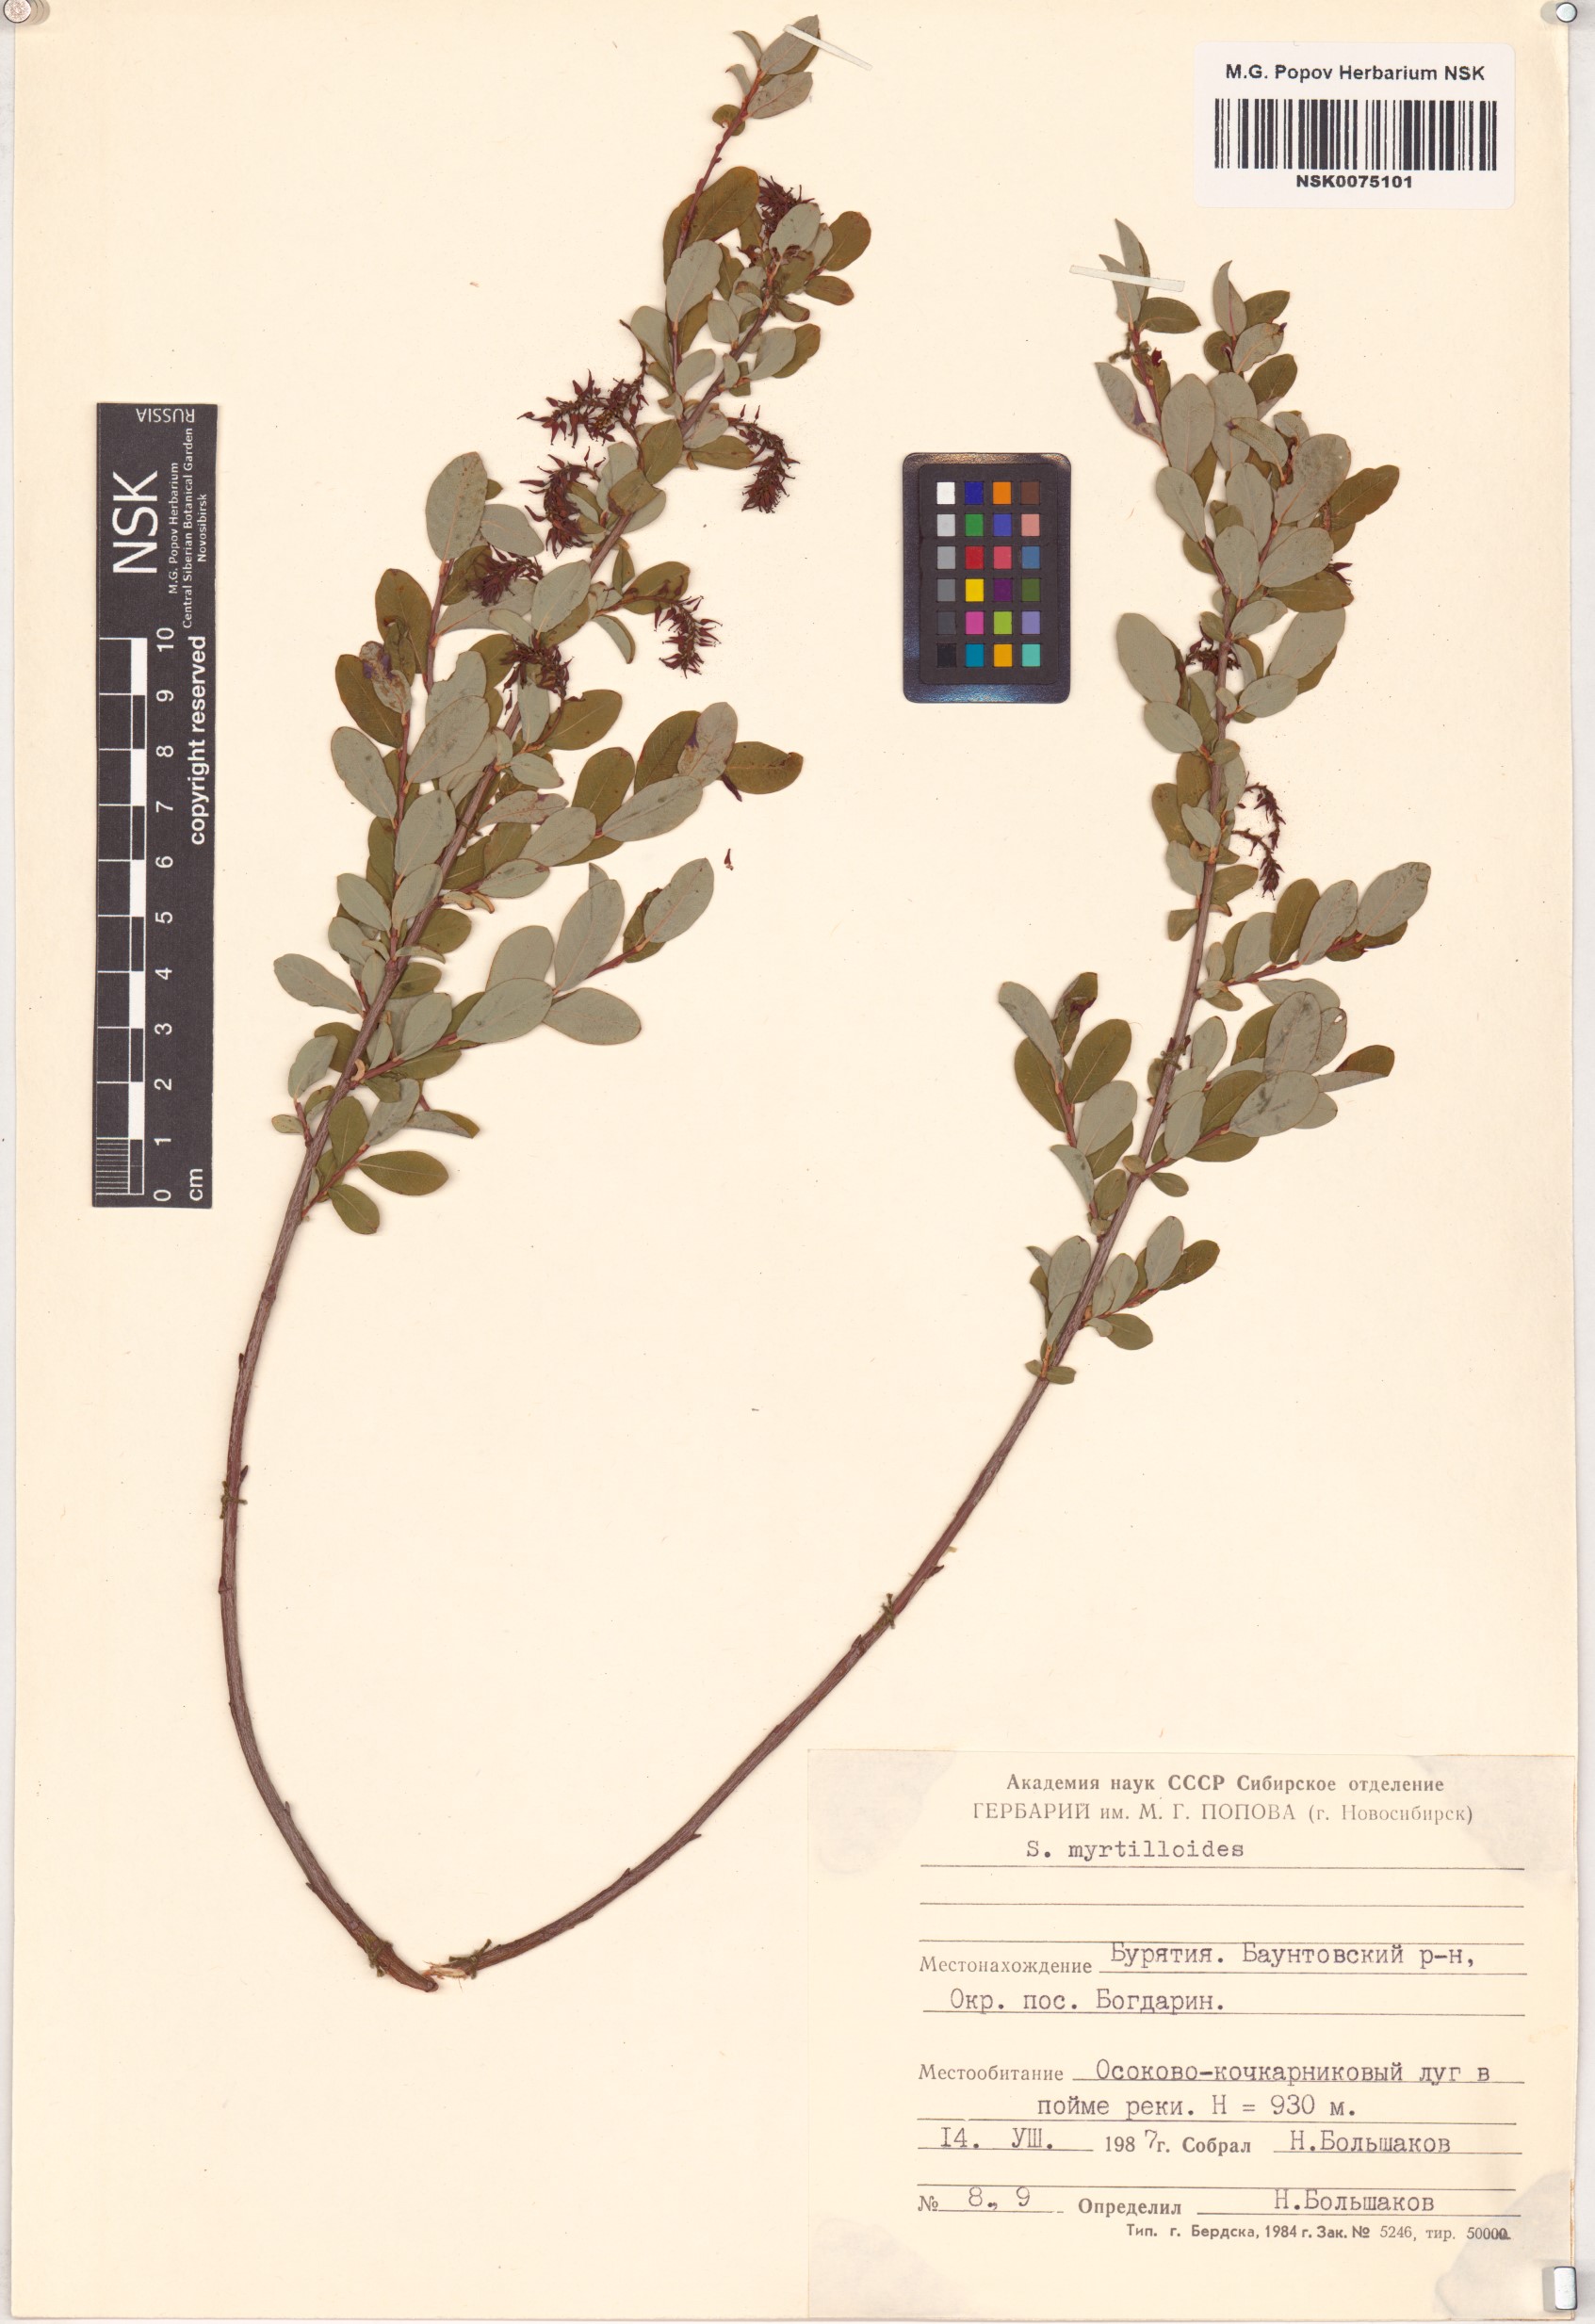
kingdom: Plantae
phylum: Tracheophyta
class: Magnoliopsida
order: Malpighiales
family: Salicaceae
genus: Salix
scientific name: Salix myrtilloides
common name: Myrtle-leaved willow
